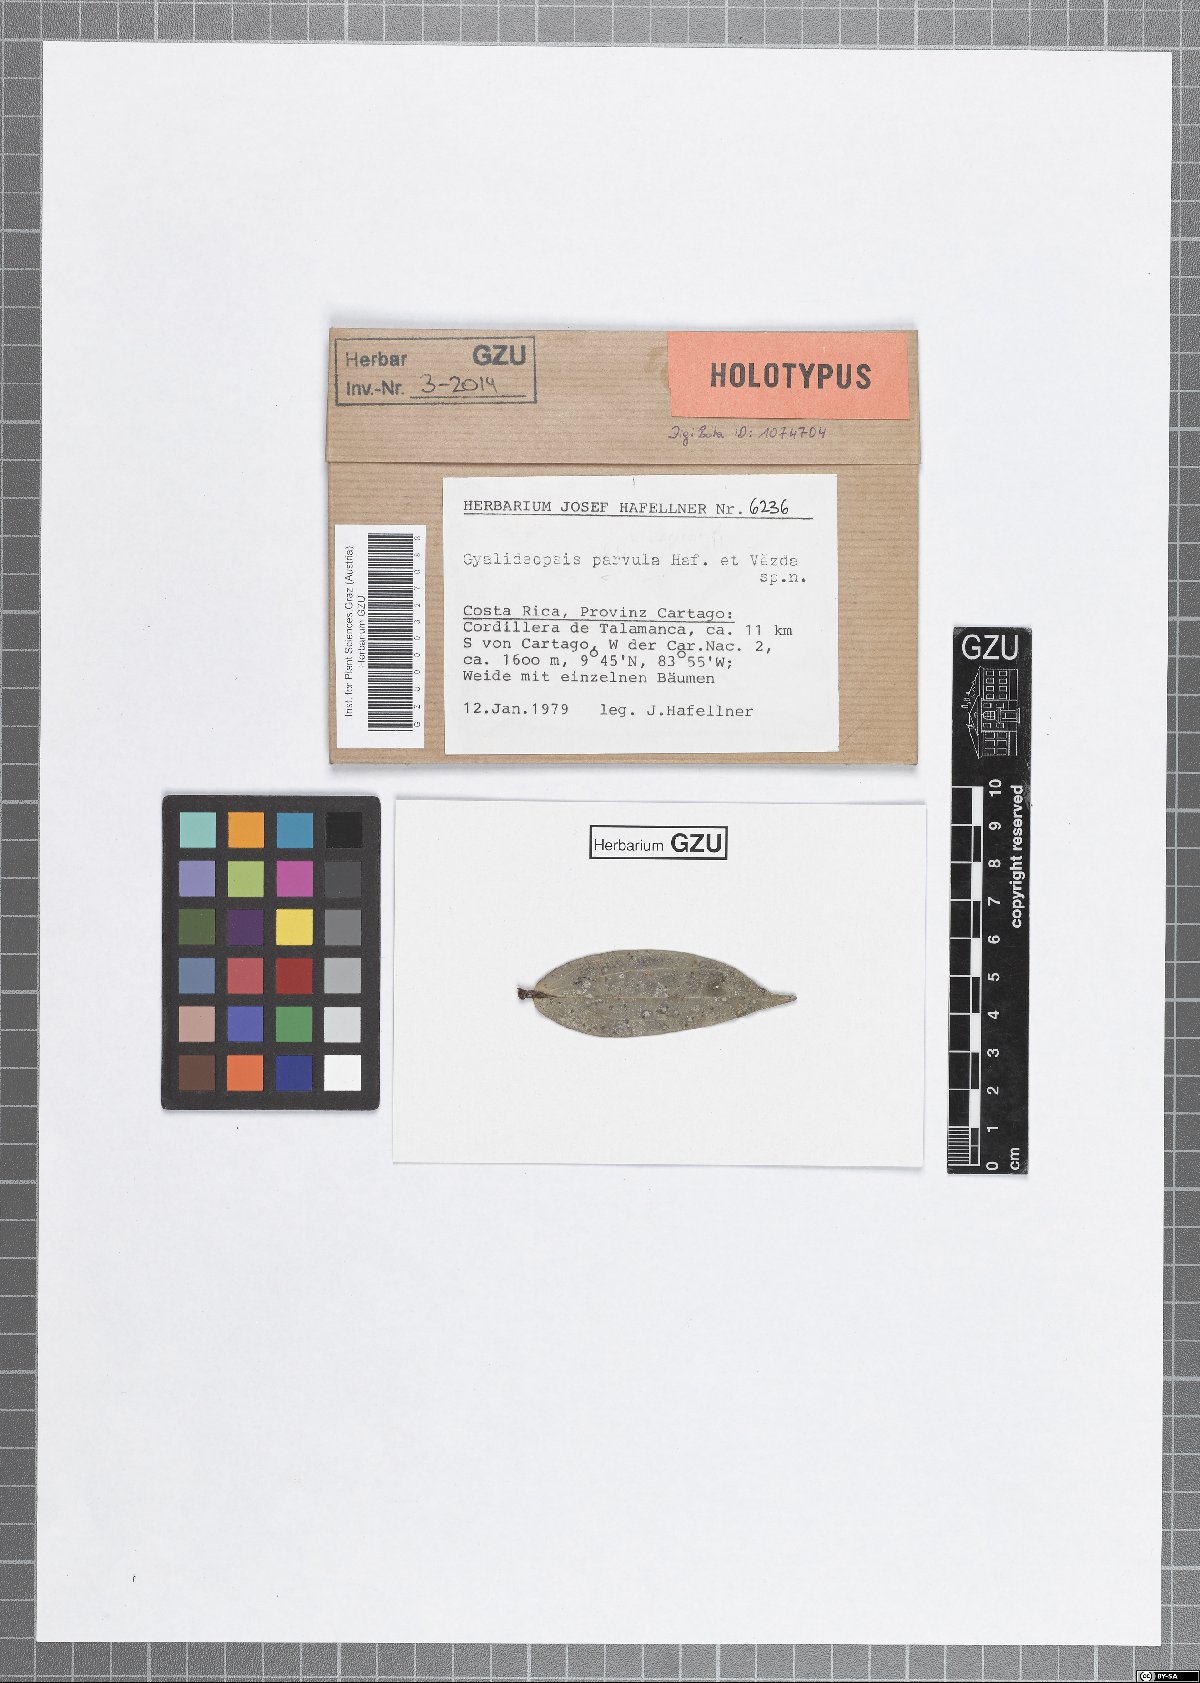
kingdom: Fungi
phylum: Ascomycota
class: Lecanoromycetes
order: Ostropales
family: Gomphillaceae
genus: Gyalideopsis
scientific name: Gyalideopsis parvula
